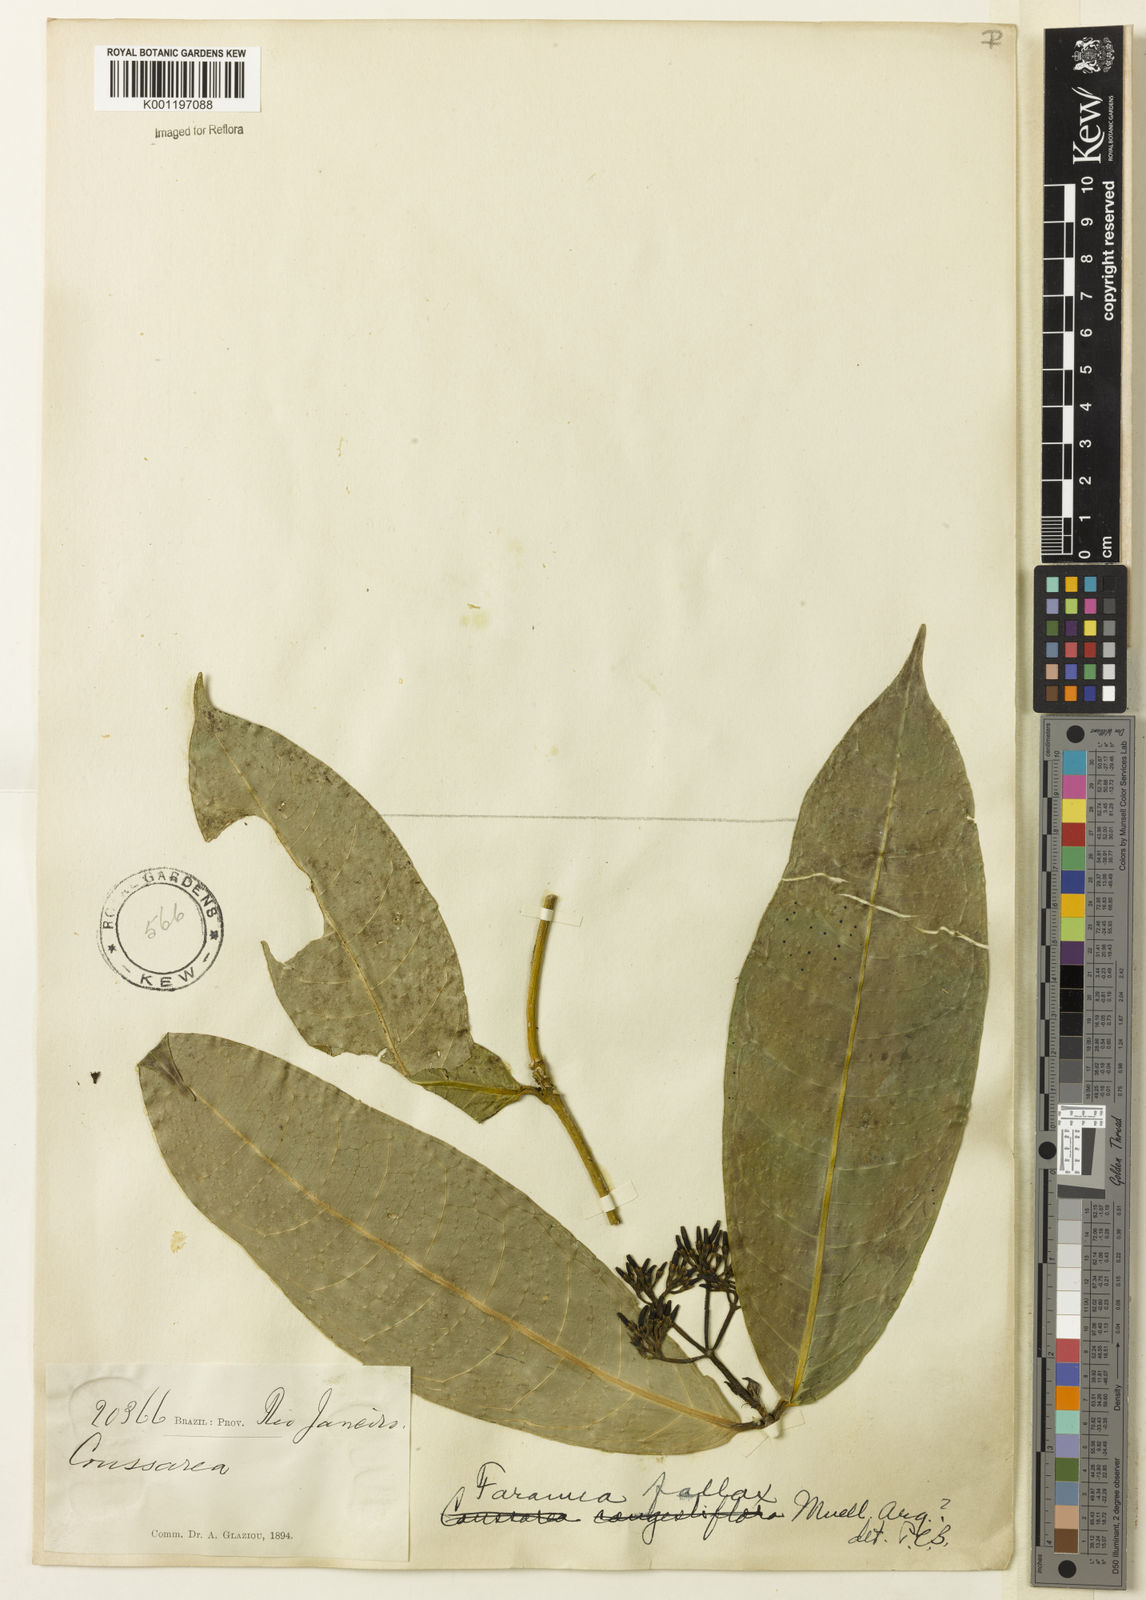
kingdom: Plantae
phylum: Tracheophyta
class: Magnoliopsida
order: Gentianales
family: Rubiaceae
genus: Faramea
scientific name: Faramea
